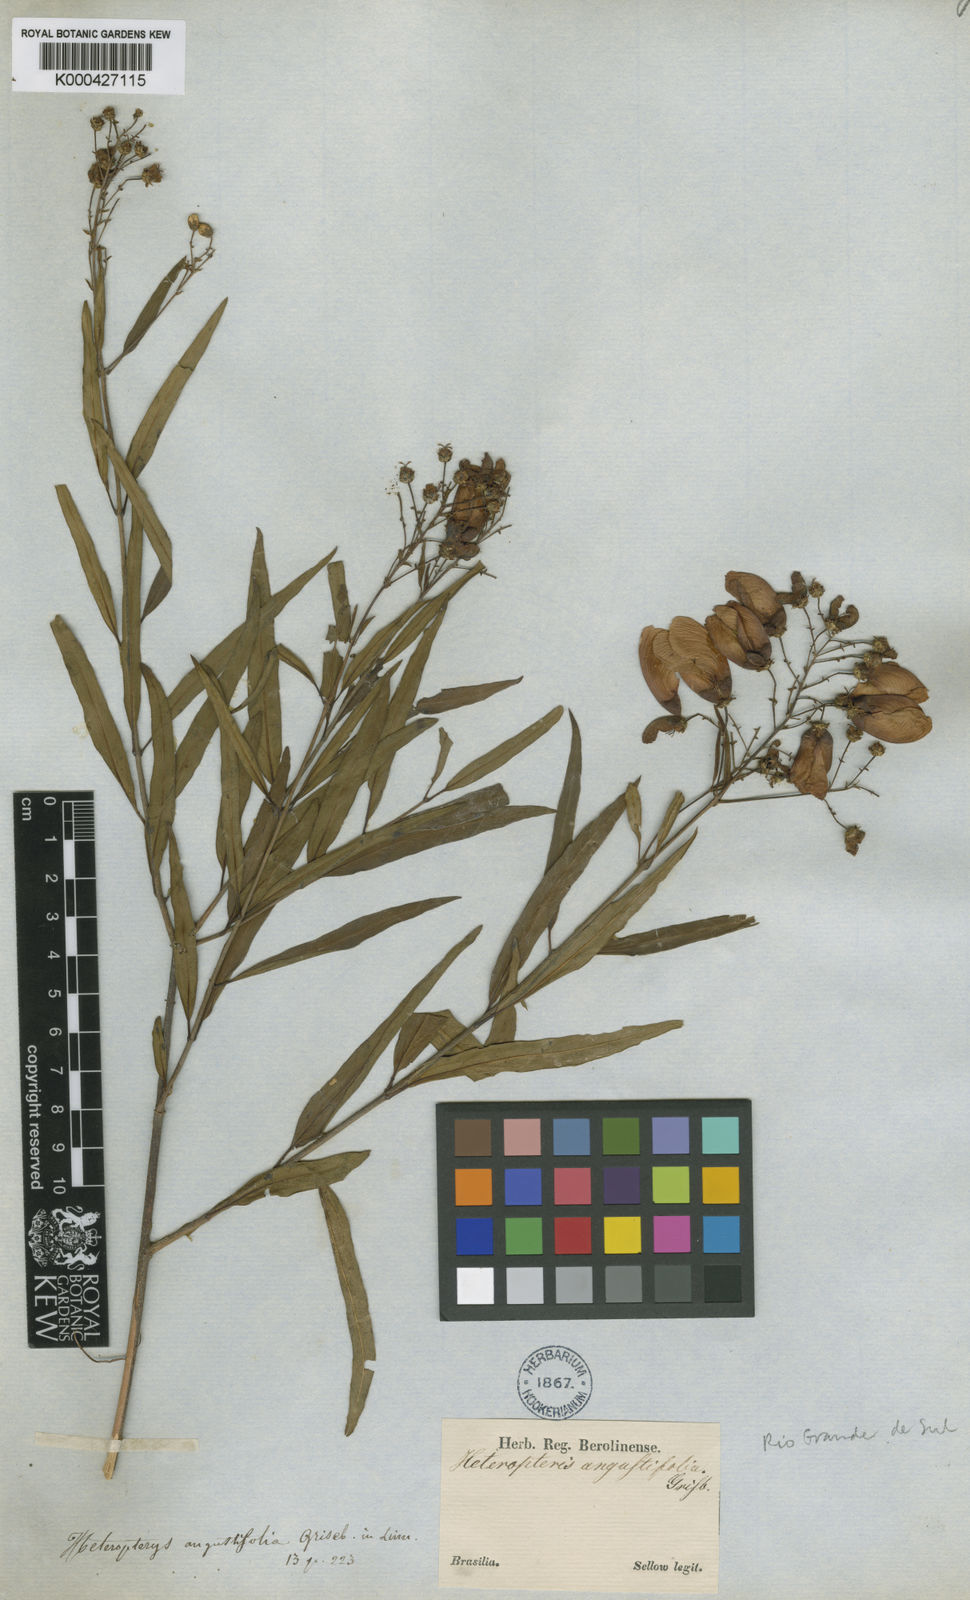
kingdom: Plantae
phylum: Tracheophyta
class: Magnoliopsida
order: Malpighiales
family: Malpighiaceae
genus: Heteropterys
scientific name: Heteropterys glabra
